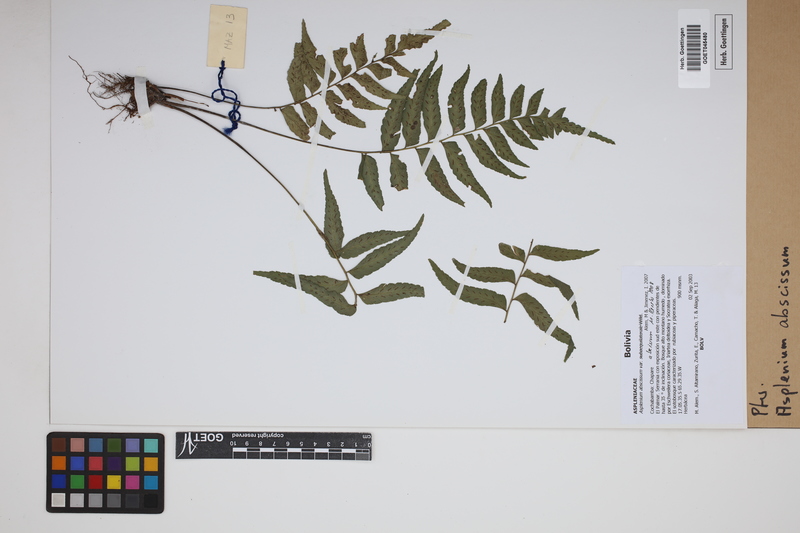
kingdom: Plantae
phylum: Tracheophyta
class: Polypodiopsida
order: Polypodiales
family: Aspleniaceae
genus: Asplenium
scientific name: Asplenium abscissum
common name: Cutleaf spleenwort
